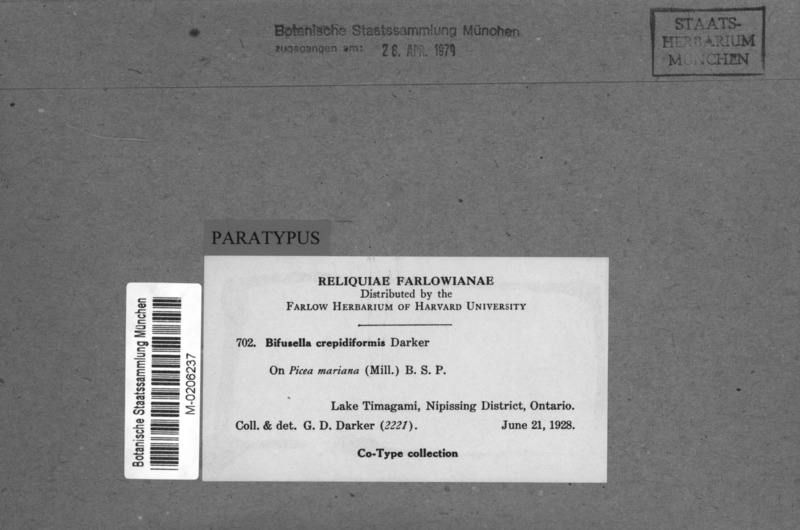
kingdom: Fungi
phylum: Ascomycota
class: Leotiomycetes
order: Rhytismatales
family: Rhytismataceae
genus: Isthmiella
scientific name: Isthmiella crepidiformis
